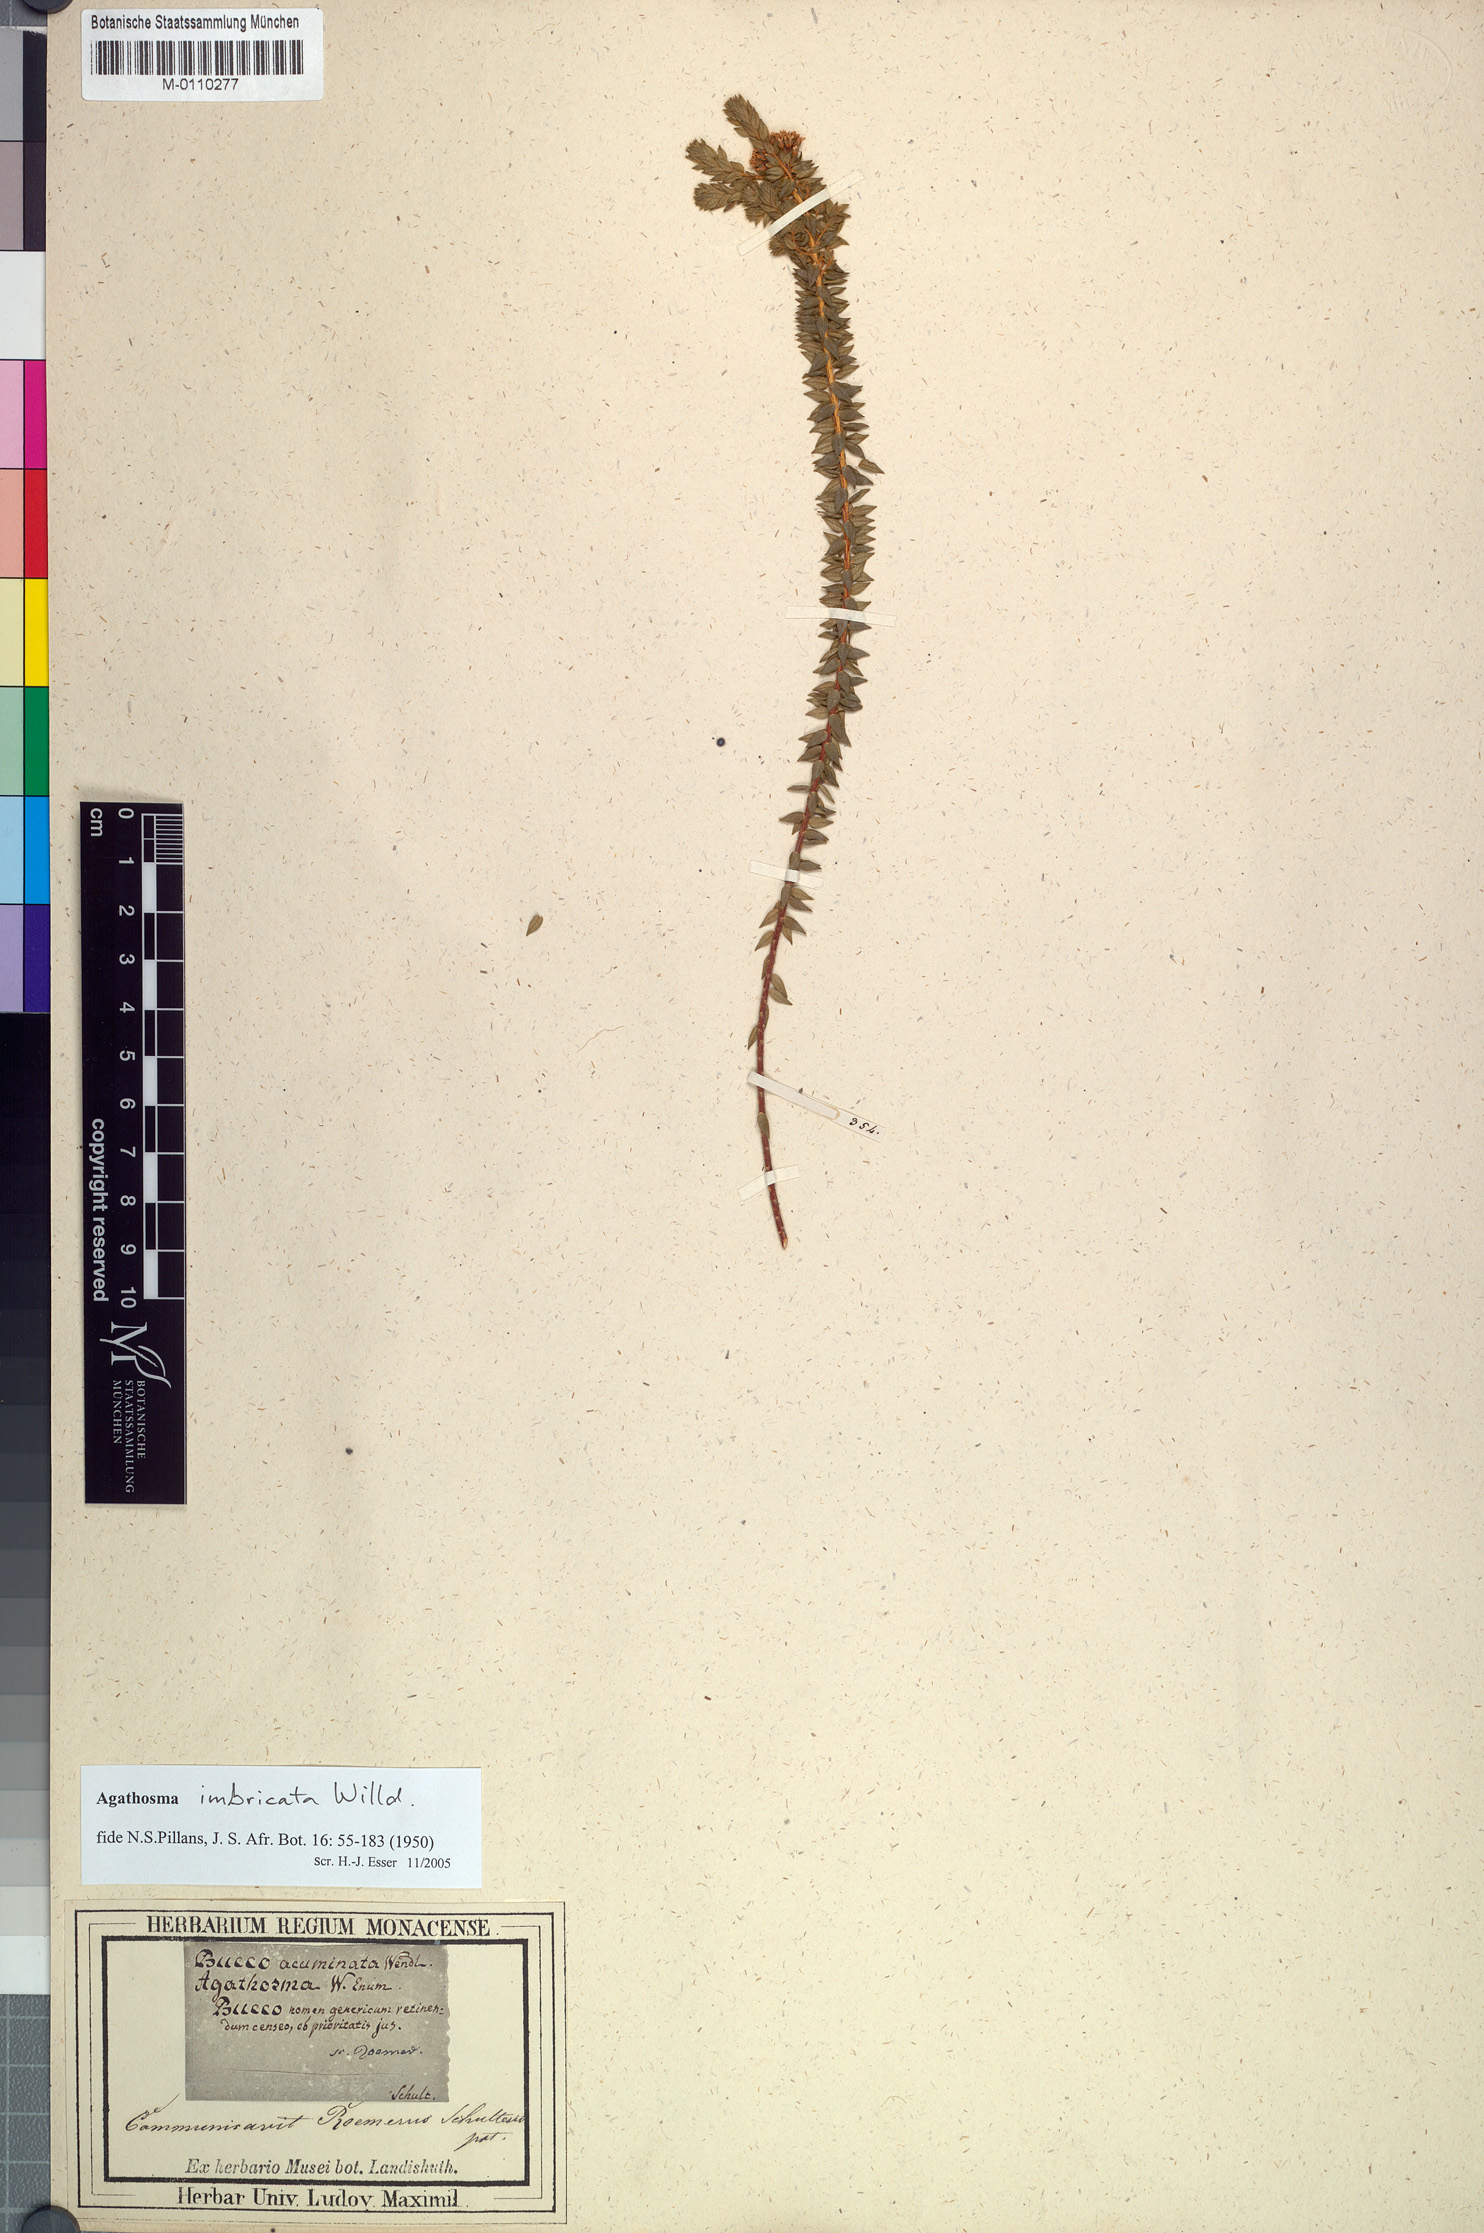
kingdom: Plantae
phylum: Tracheophyta
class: Magnoliopsida
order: Sapindales
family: Rutaceae
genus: Agathosma
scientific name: Agathosma imbricata
